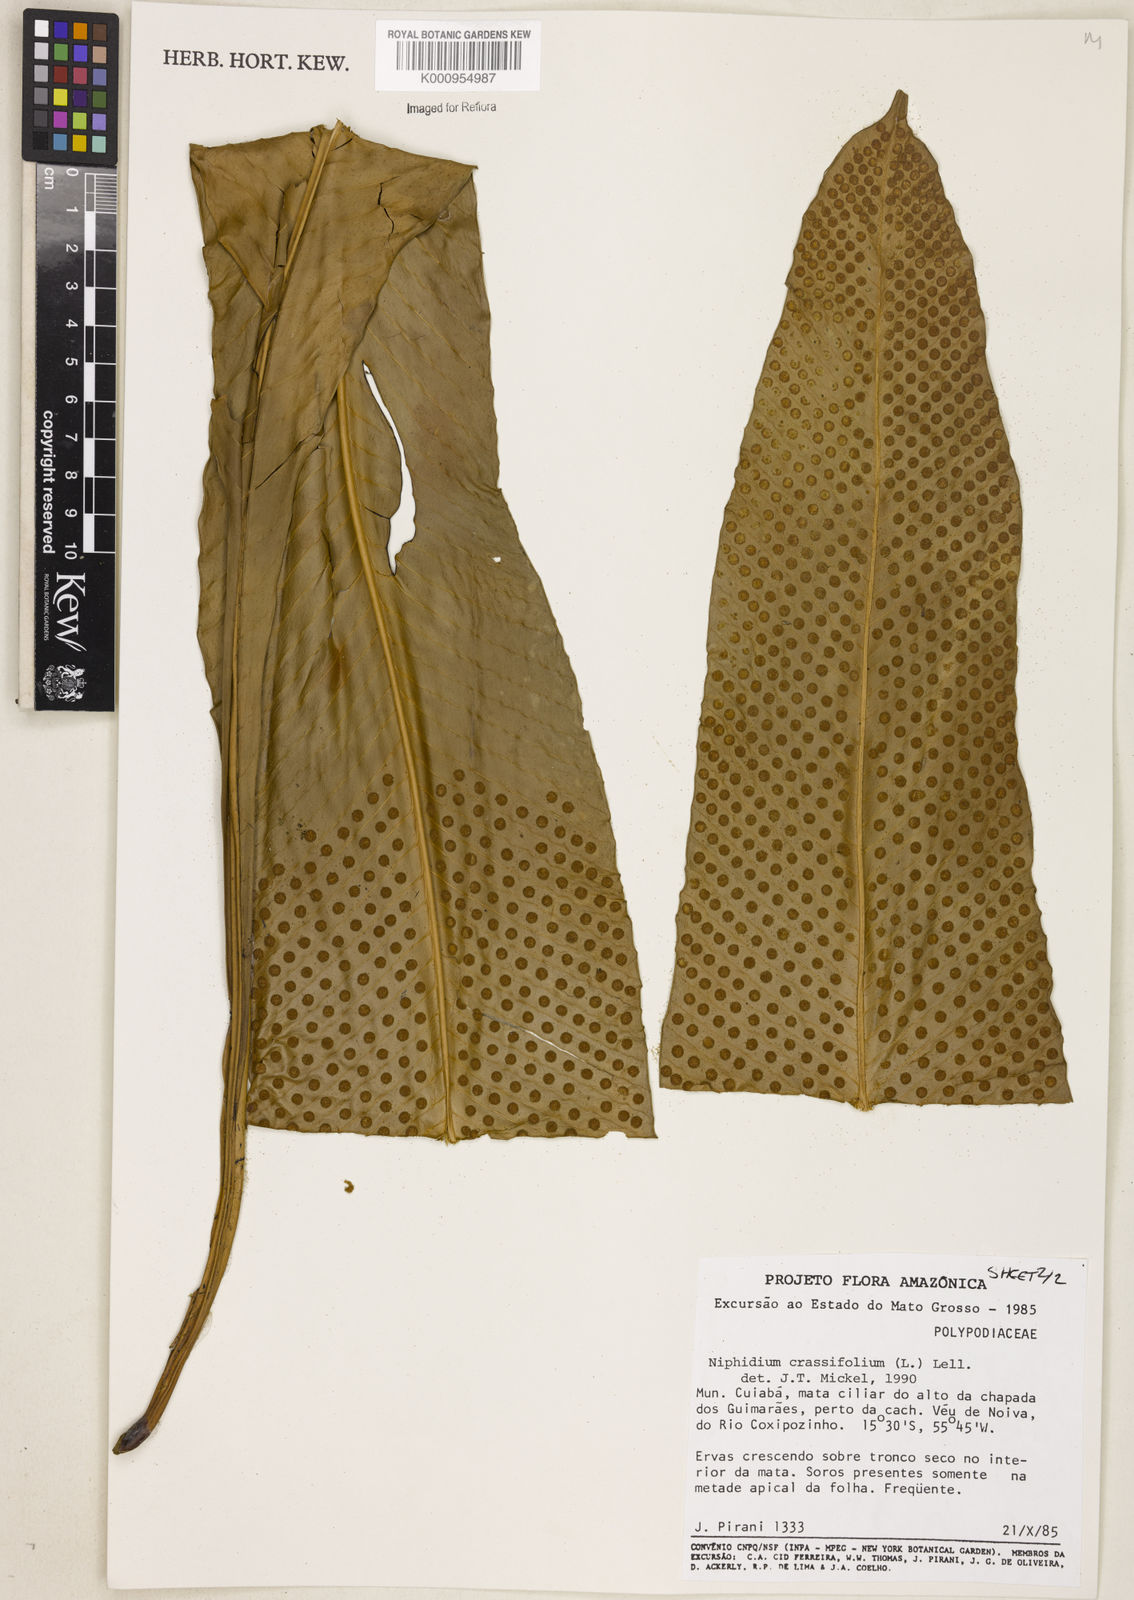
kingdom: Plantae
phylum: Tracheophyta
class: Polypodiopsida
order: Polypodiales
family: Polypodiaceae
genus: Niphidium
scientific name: Niphidium crassifolium
